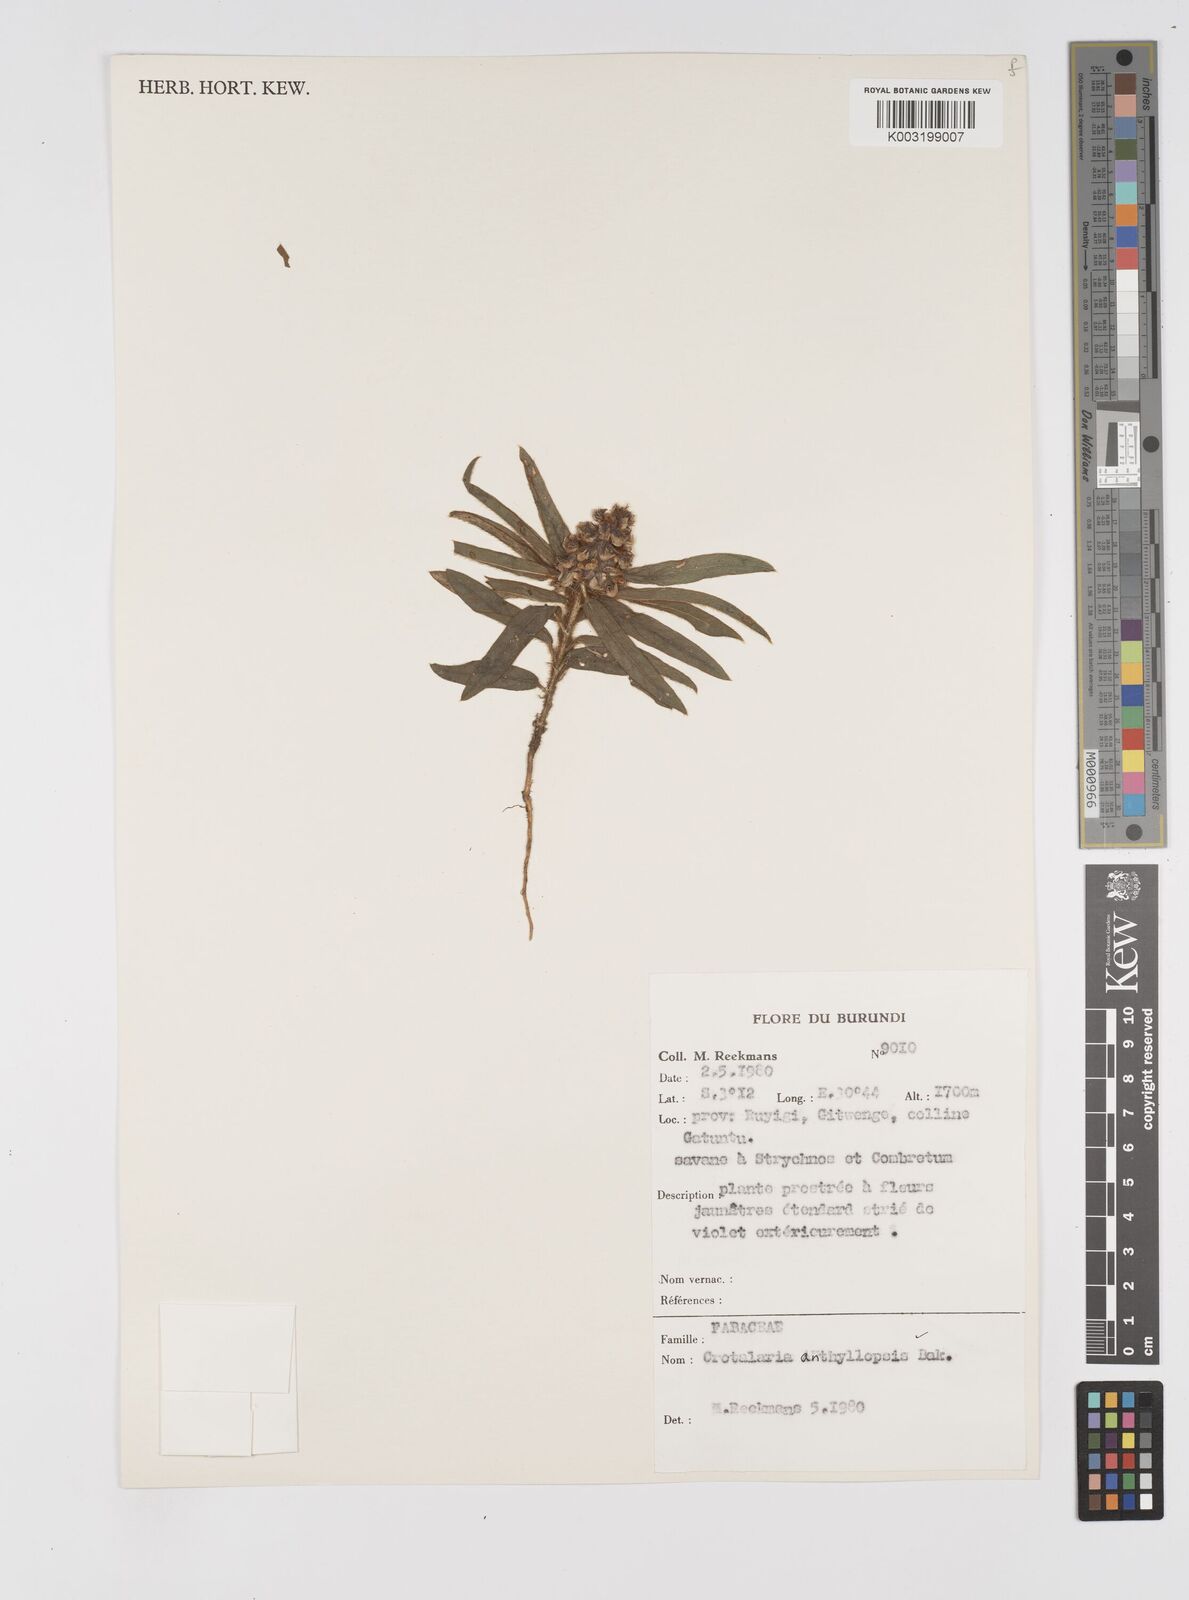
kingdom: Plantae
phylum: Tracheophyta
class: Magnoliopsida
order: Fabales
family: Fabaceae
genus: Crotalaria
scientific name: Crotalaria anthyllopsis
